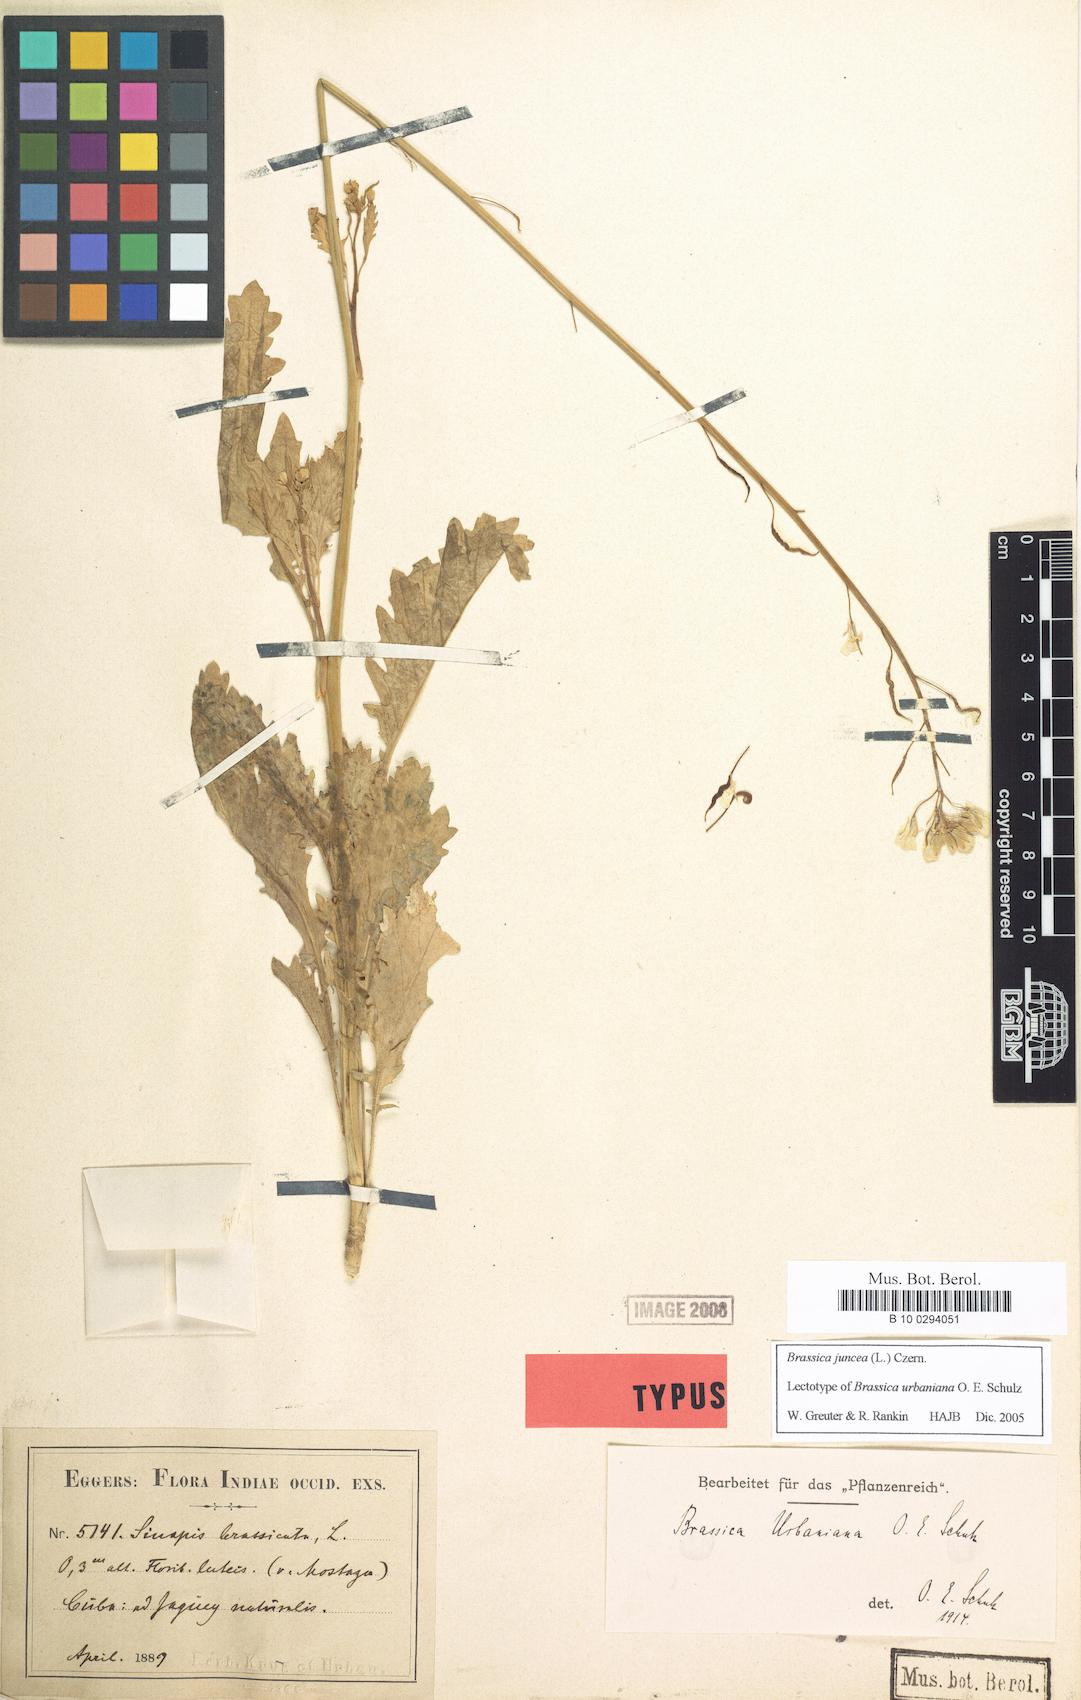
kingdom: Plantae
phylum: Tracheophyta
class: Magnoliopsida
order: Brassicales
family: Brassicaceae
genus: Brassica
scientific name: Brassica juncea
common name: Brown mustard
